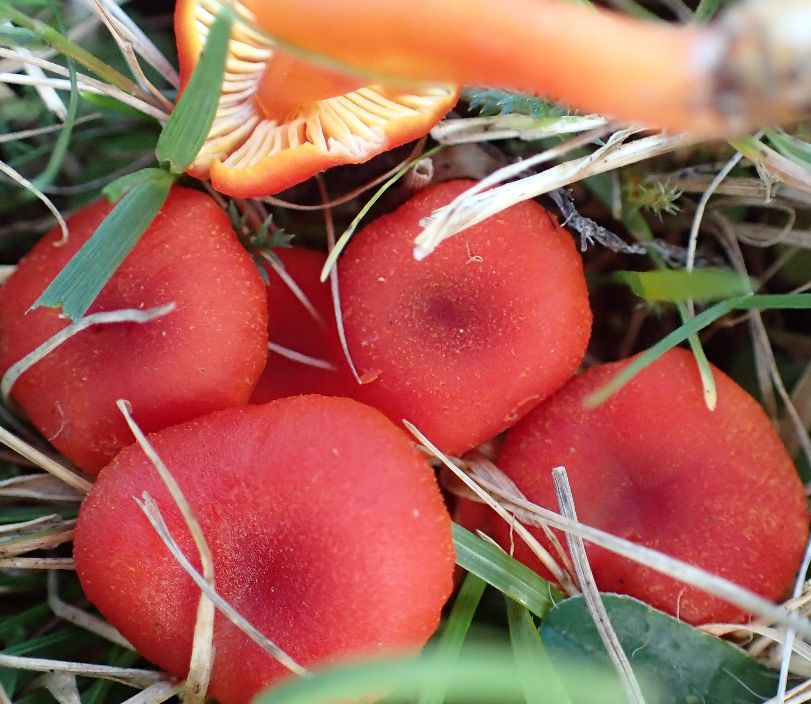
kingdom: Fungi
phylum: Basidiomycota
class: Agaricomycetes
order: Agaricales
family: Hygrophoraceae
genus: Hygrocybe
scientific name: Hygrocybe miniata
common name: mønje-vokshat
